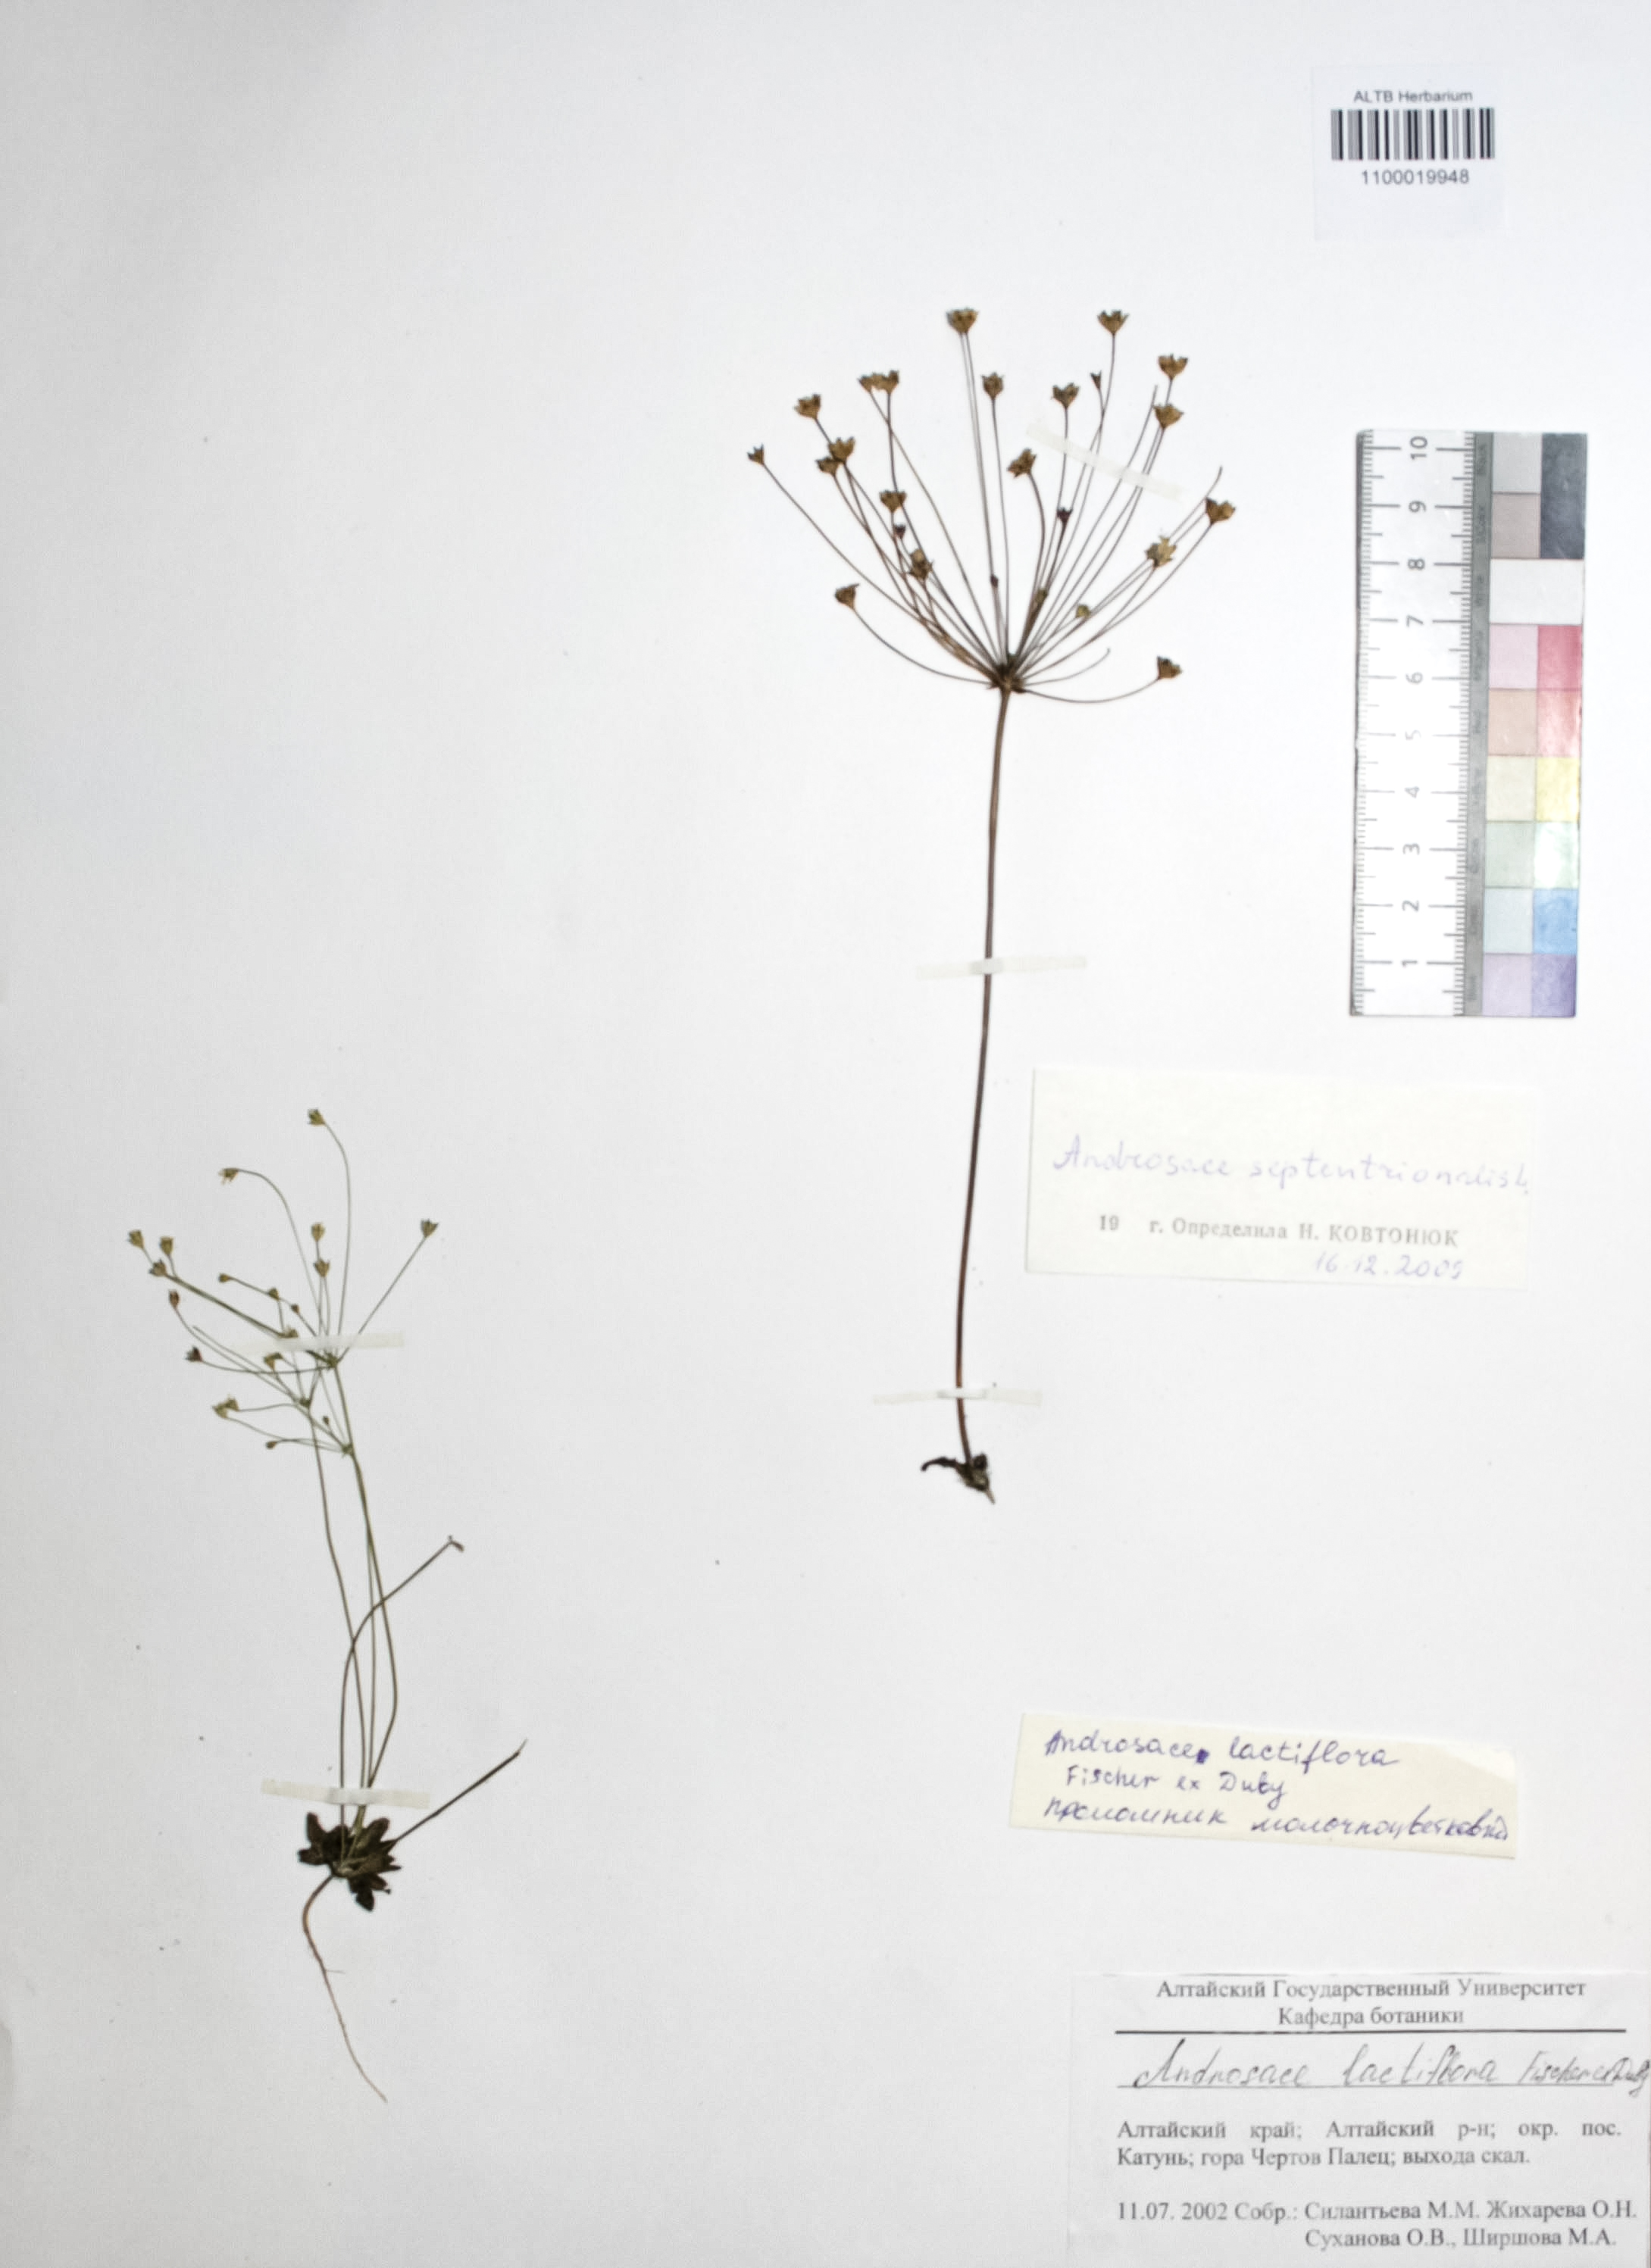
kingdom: Plantae
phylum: Tracheophyta
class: Magnoliopsida
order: Ericales
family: Primulaceae
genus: Androsace
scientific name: Androsace septentrionalis
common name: Hairy northern fairy-candelabra
